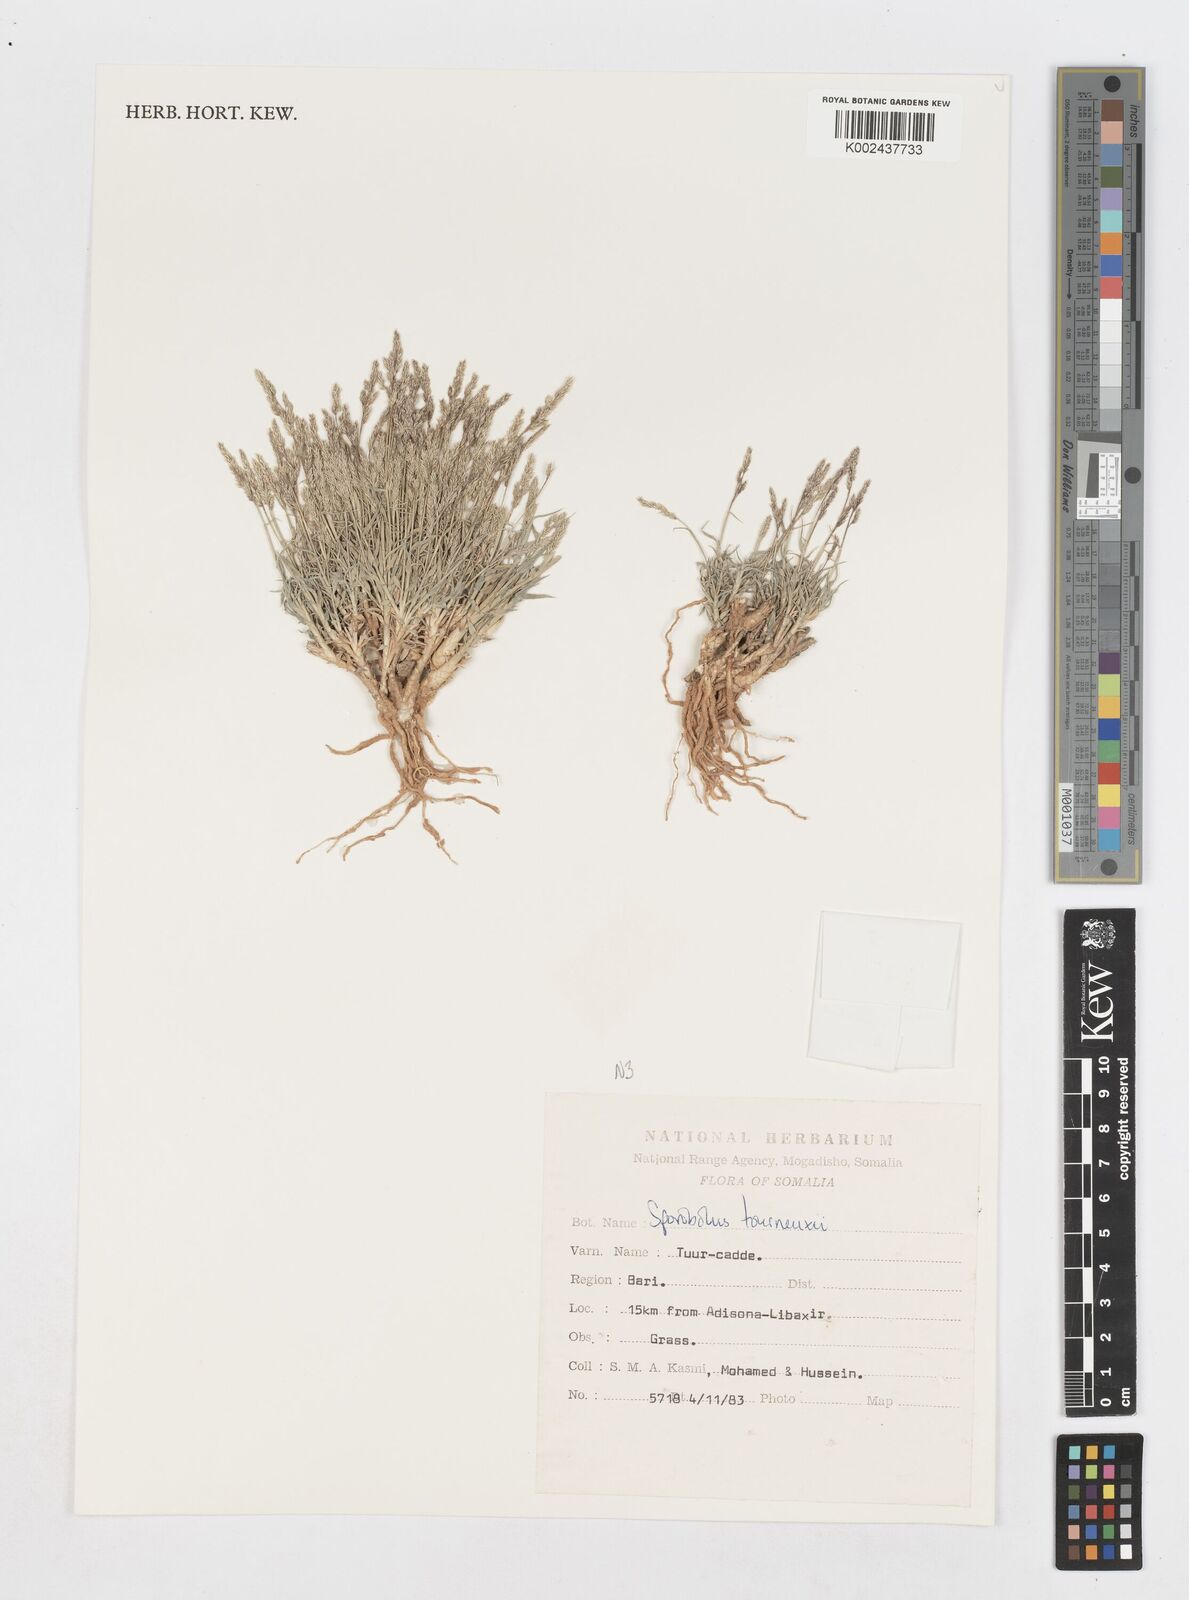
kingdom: Plantae
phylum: Tracheophyta
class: Liliopsida
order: Poales
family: Poaceae
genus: Sporobolus
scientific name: Sporobolus tourneuxii
